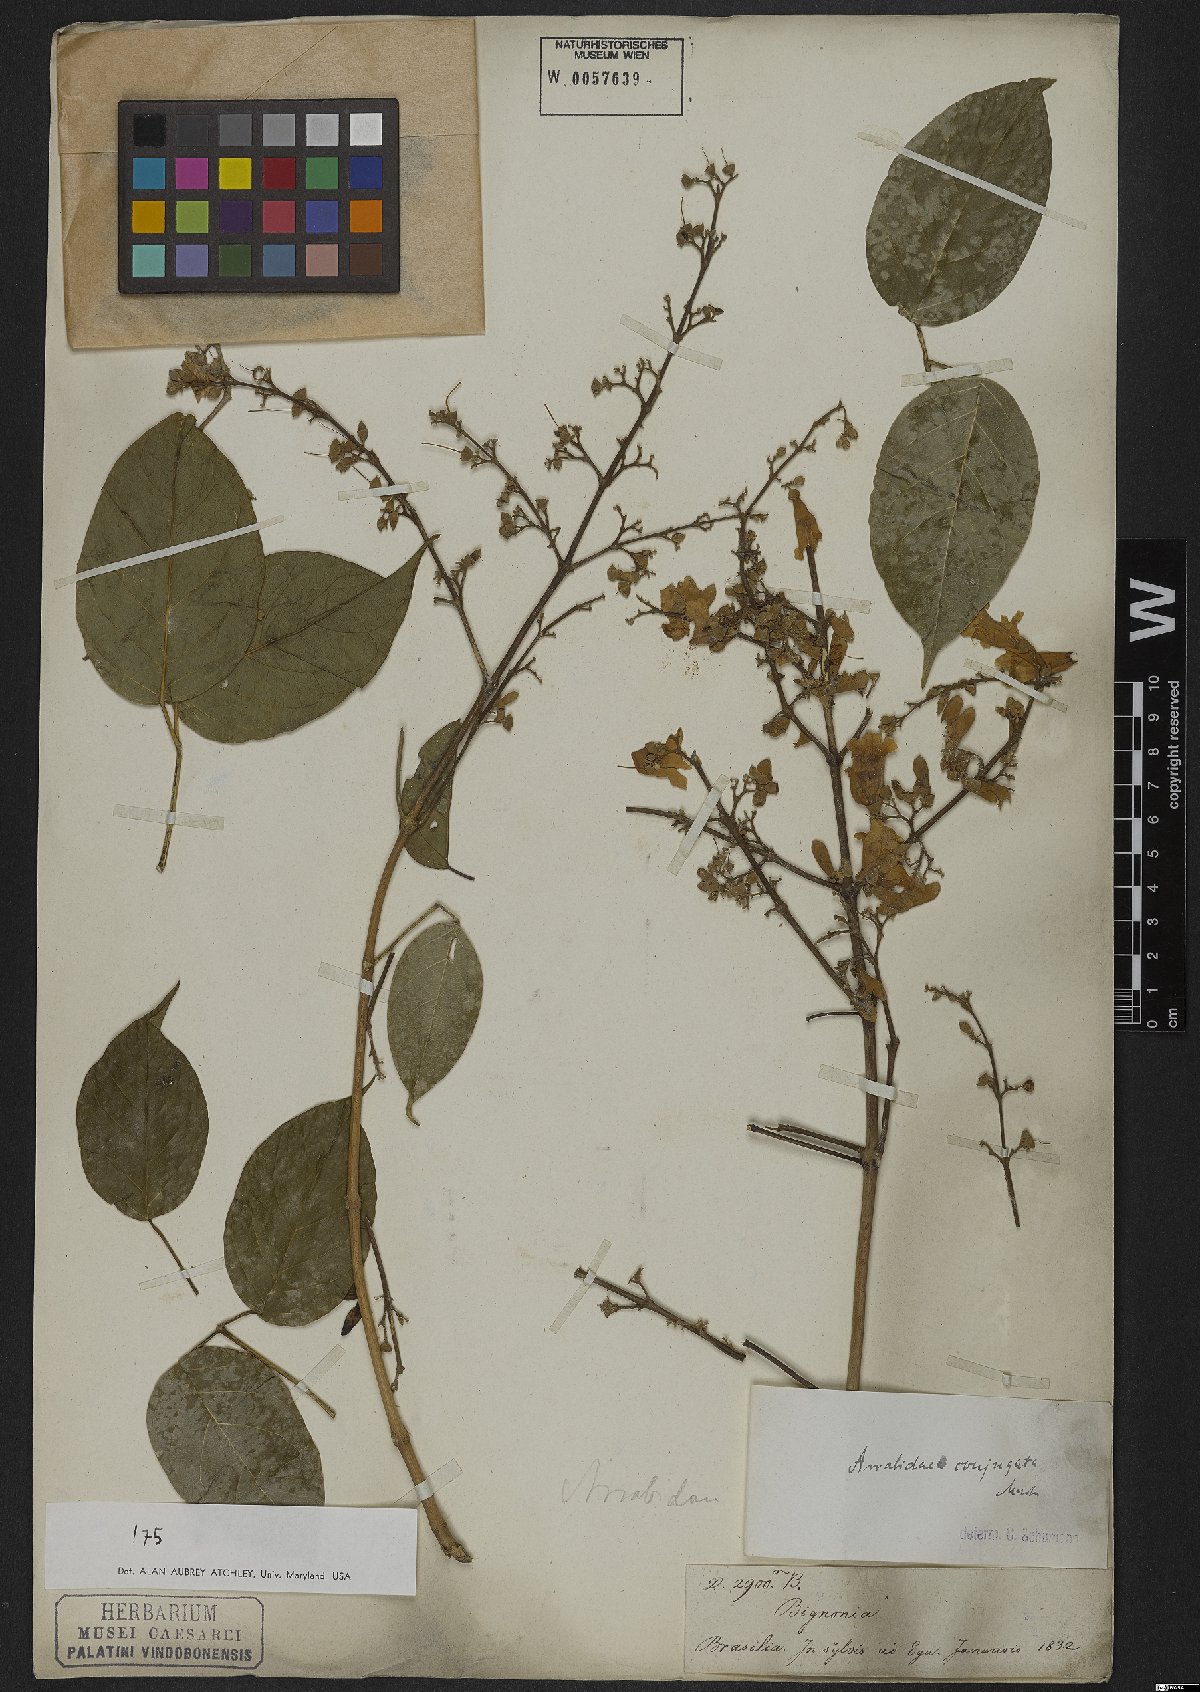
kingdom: Plantae
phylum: Tracheophyta
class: Magnoliopsida
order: Lamiales
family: Bignoniaceae
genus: Fridericia
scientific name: Fridericia conjugata
